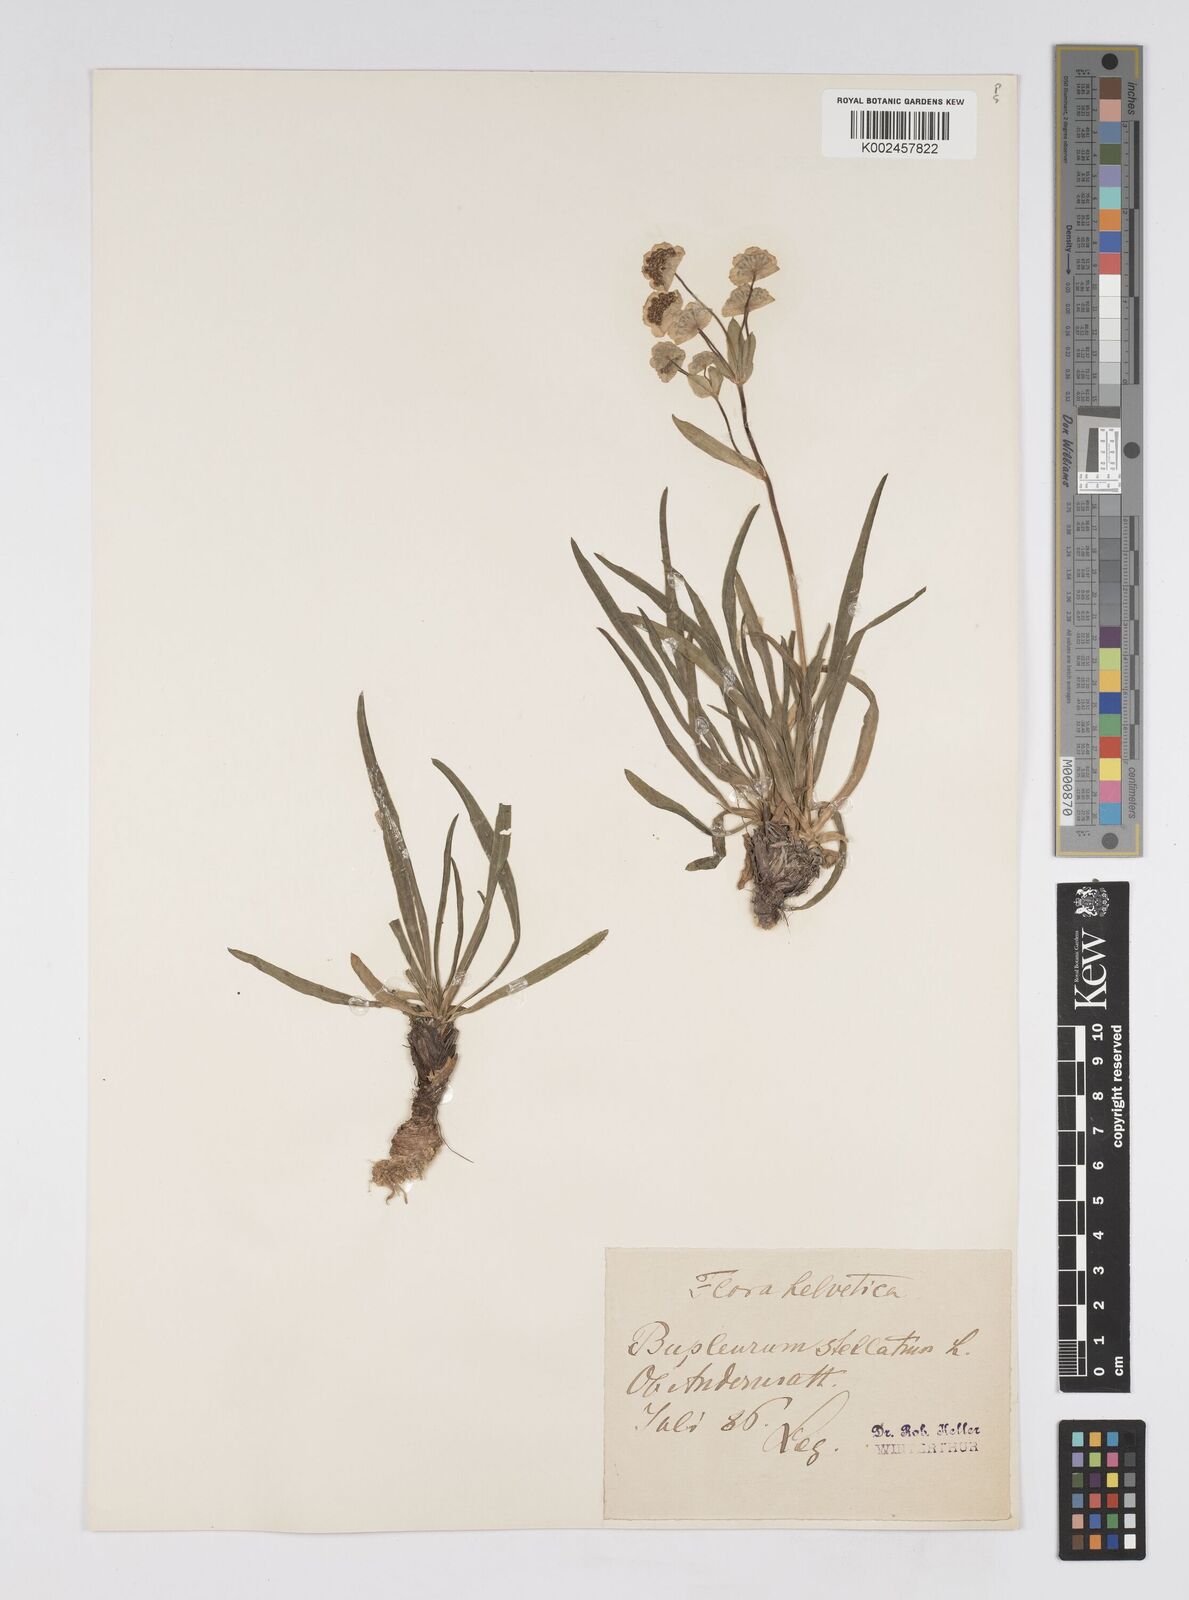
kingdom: Plantae
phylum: Tracheophyta
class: Magnoliopsida
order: Apiales
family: Apiaceae
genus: Bupleurum
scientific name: Bupleurum stellatum
